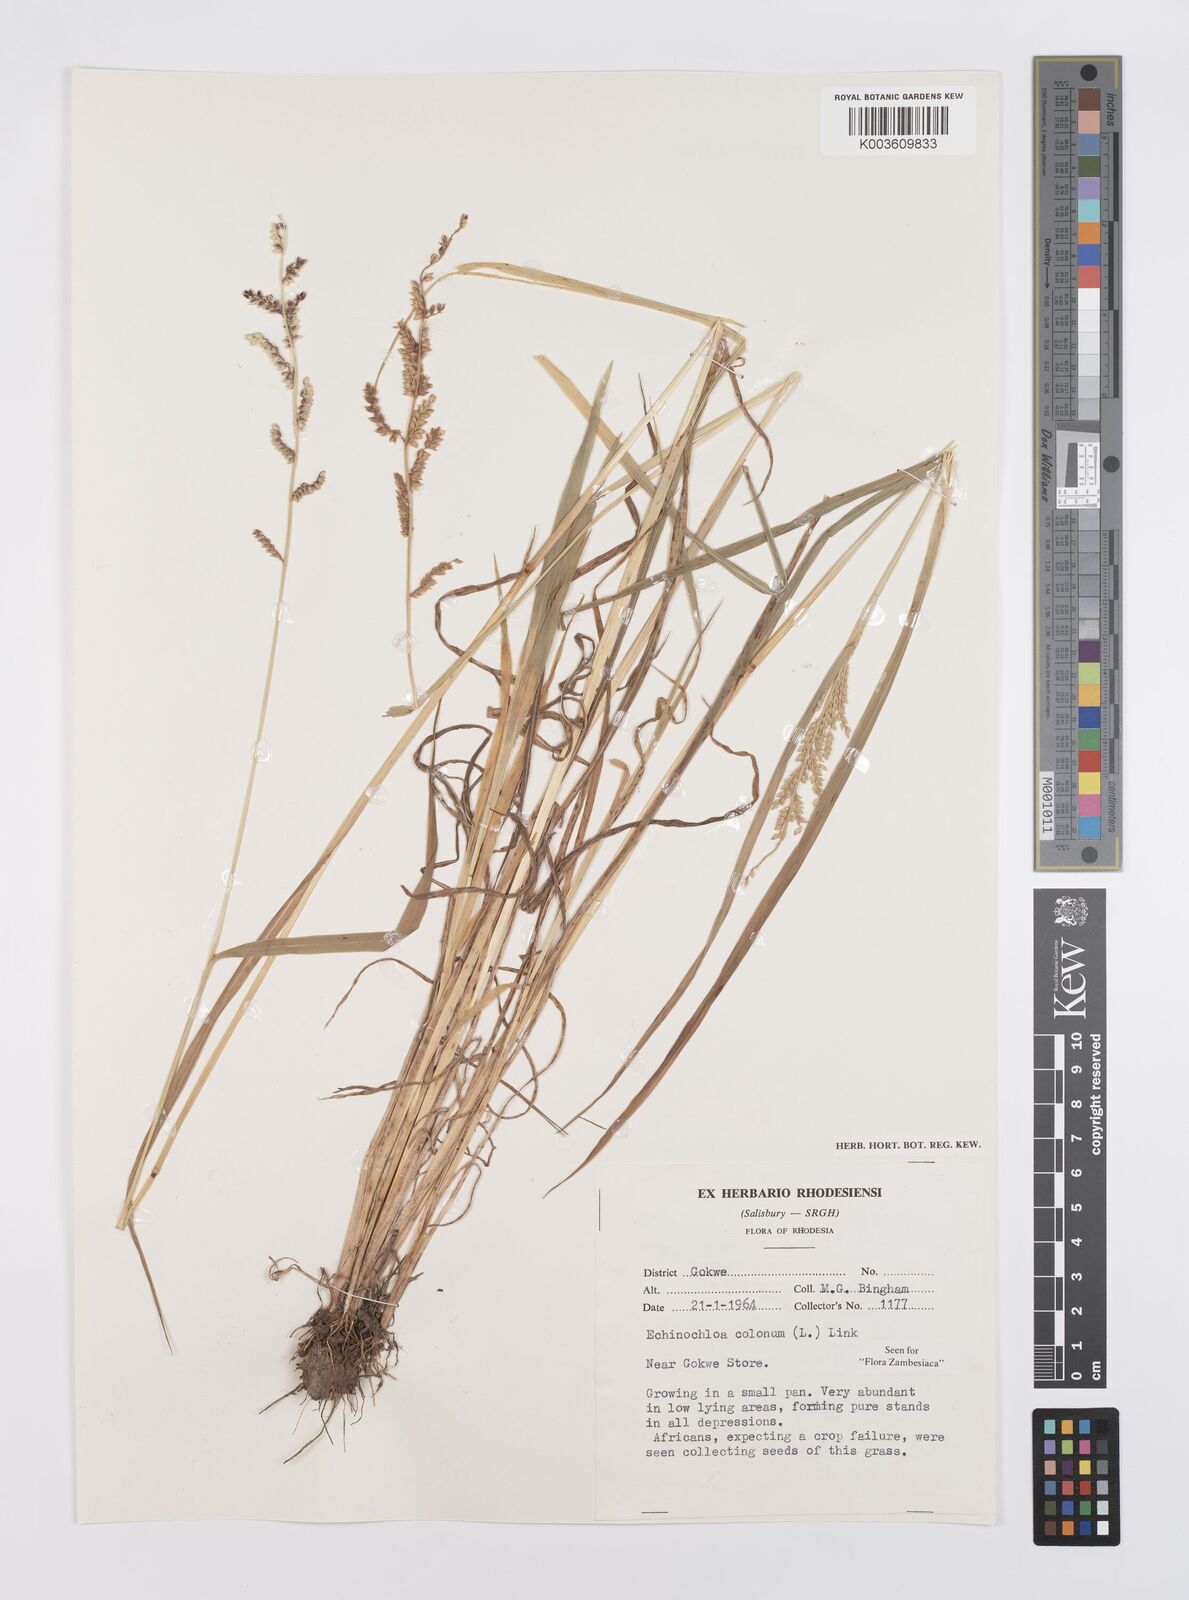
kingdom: Plantae
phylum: Tracheophyta
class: Liliopsida
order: Poales
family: Poaceae
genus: Echinochloa
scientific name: Echinochloa colonum
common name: Jungle rice
